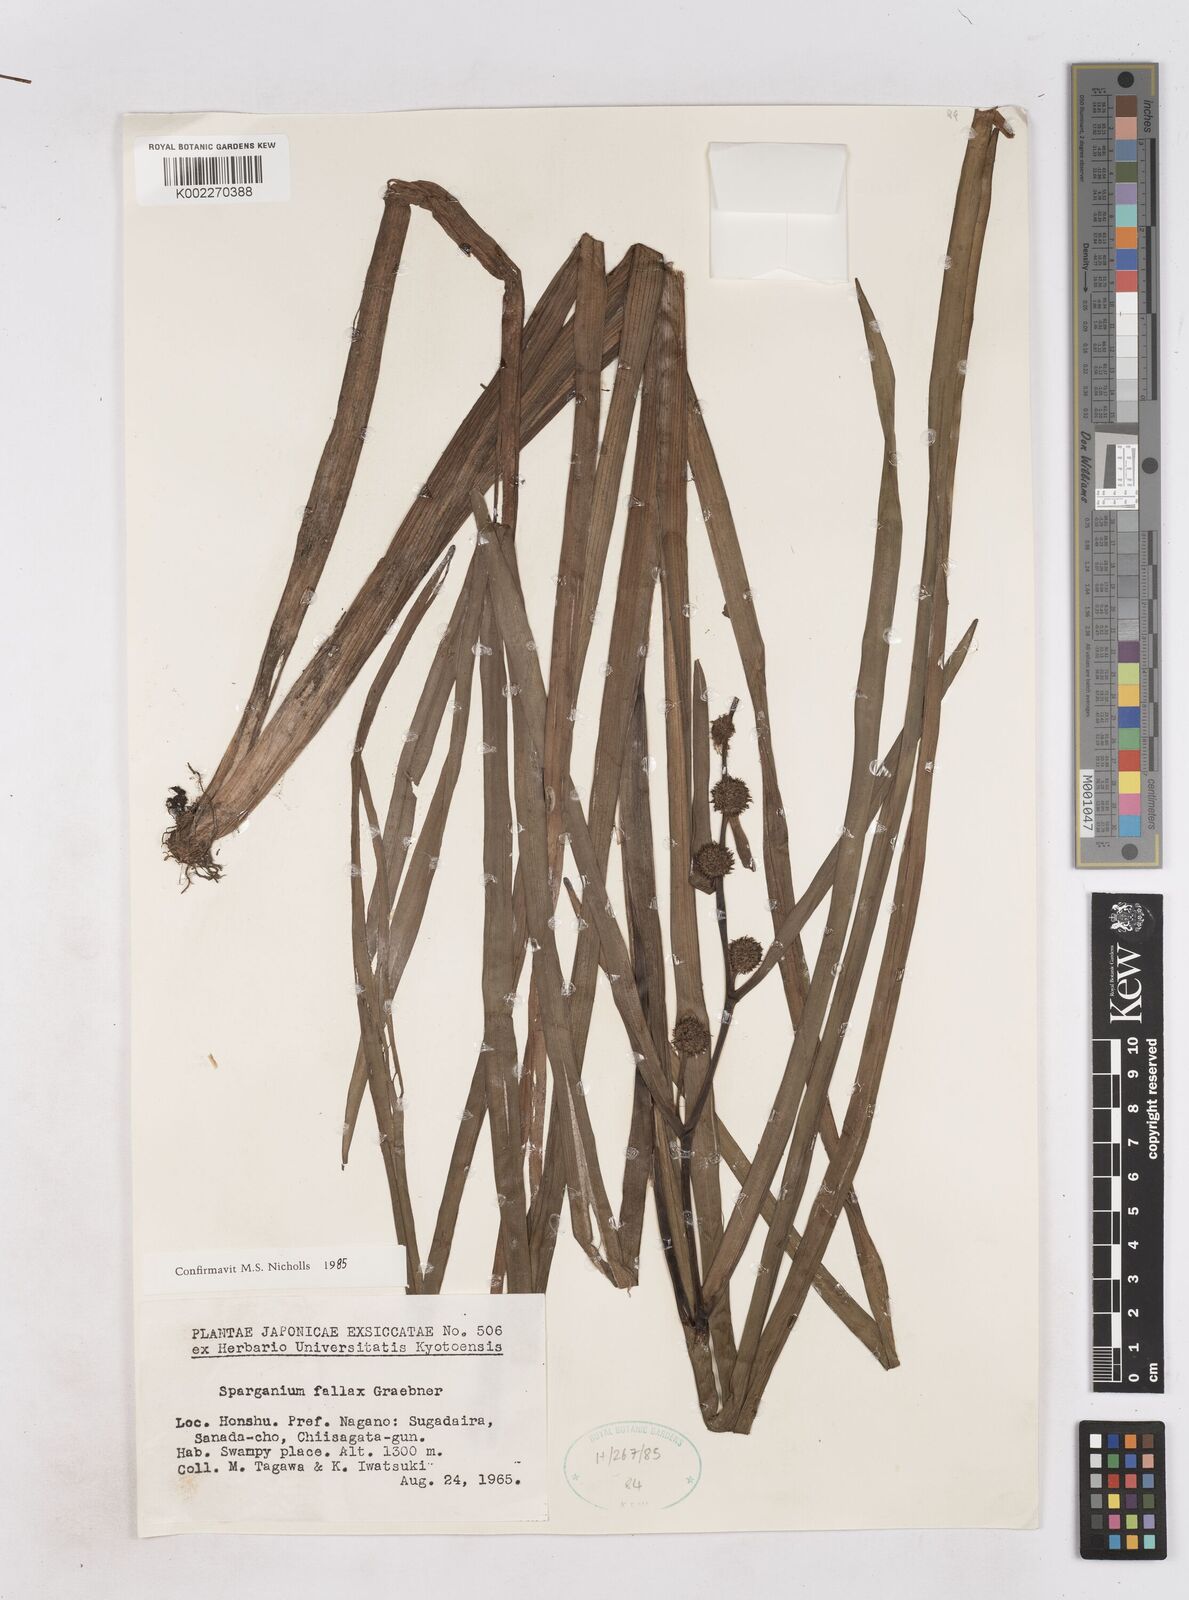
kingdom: Plantae
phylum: Tracheophyta
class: Liliopsida
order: Poales
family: Typhaceae
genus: Sparganium
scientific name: Sparganium fallax
